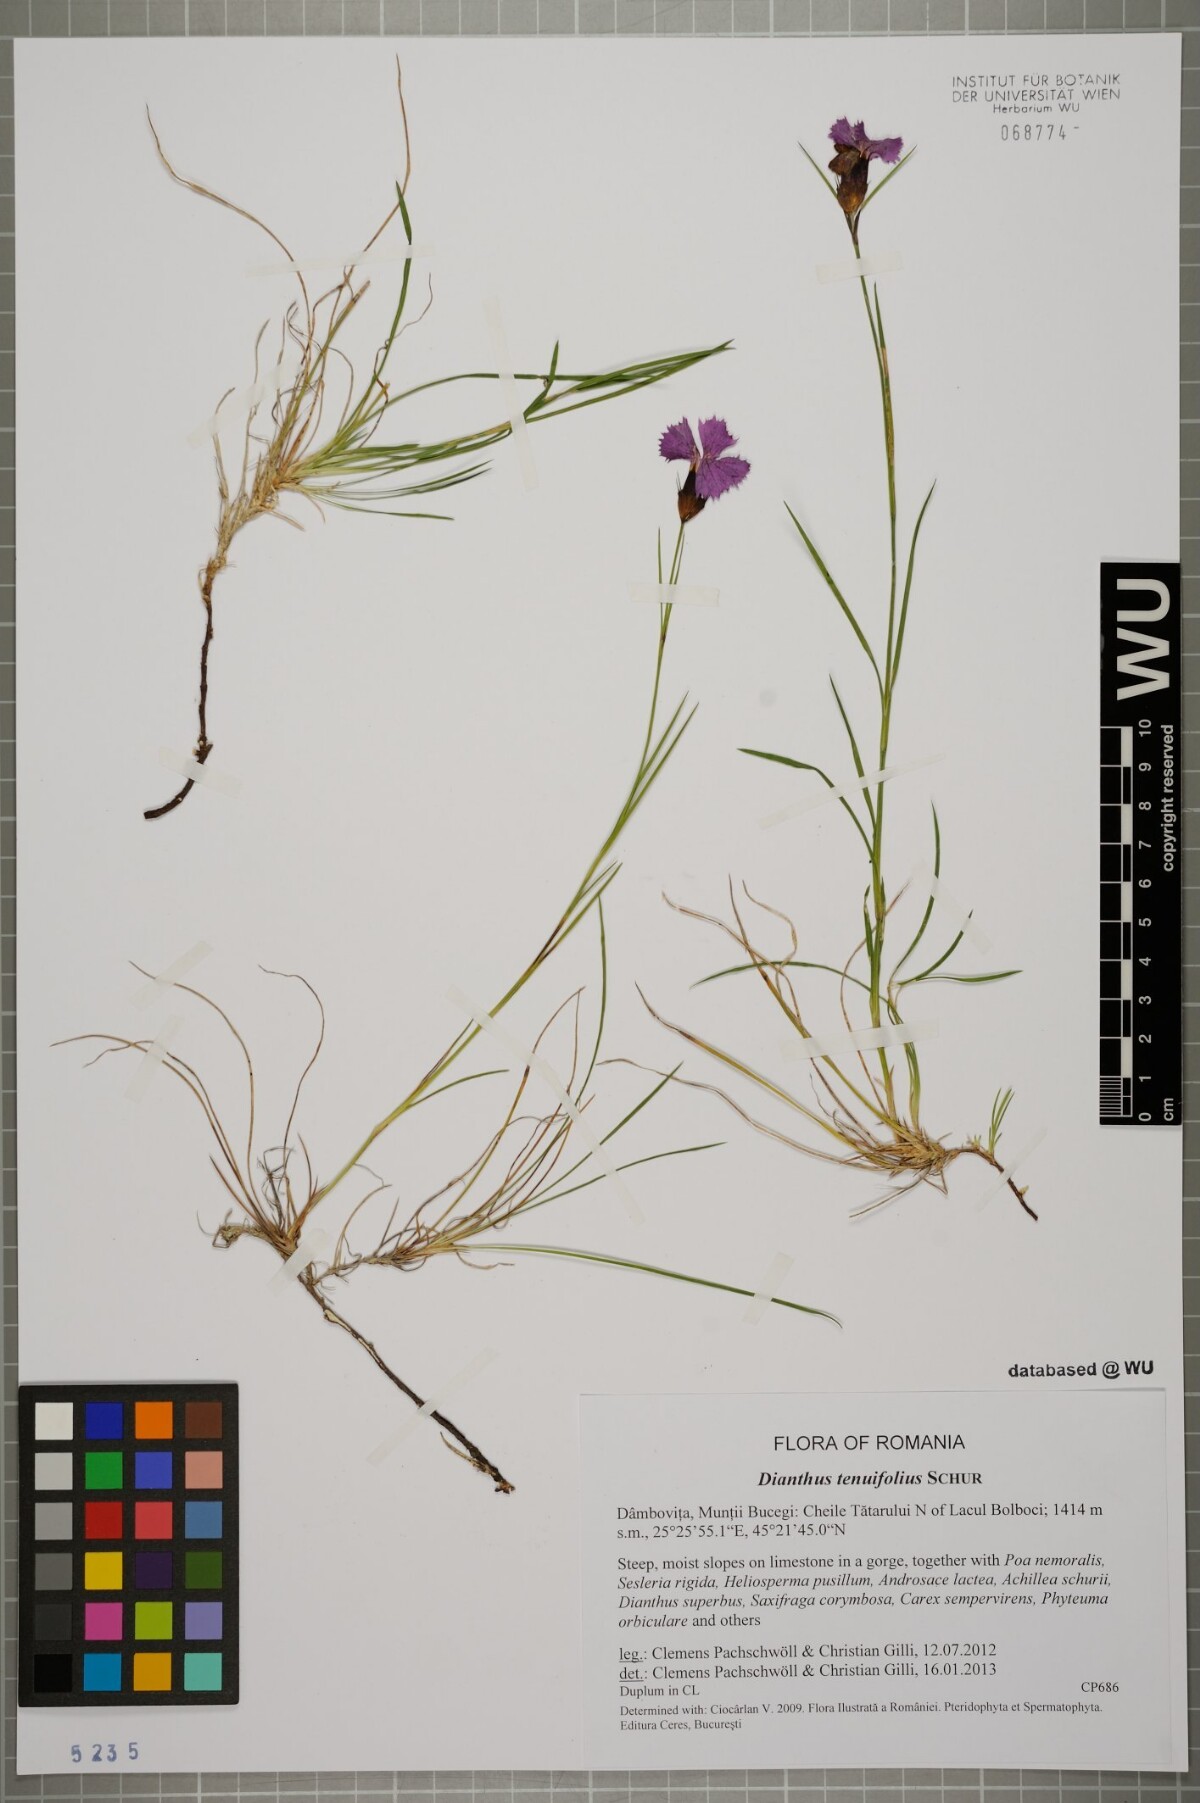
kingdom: Plantae
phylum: Tracheophyta
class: Magnoliopsida
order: Caryophyllales
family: Caryophyllaceae
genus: Dianthus
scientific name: Dianthus carthusianorum
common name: Carthusian pink
